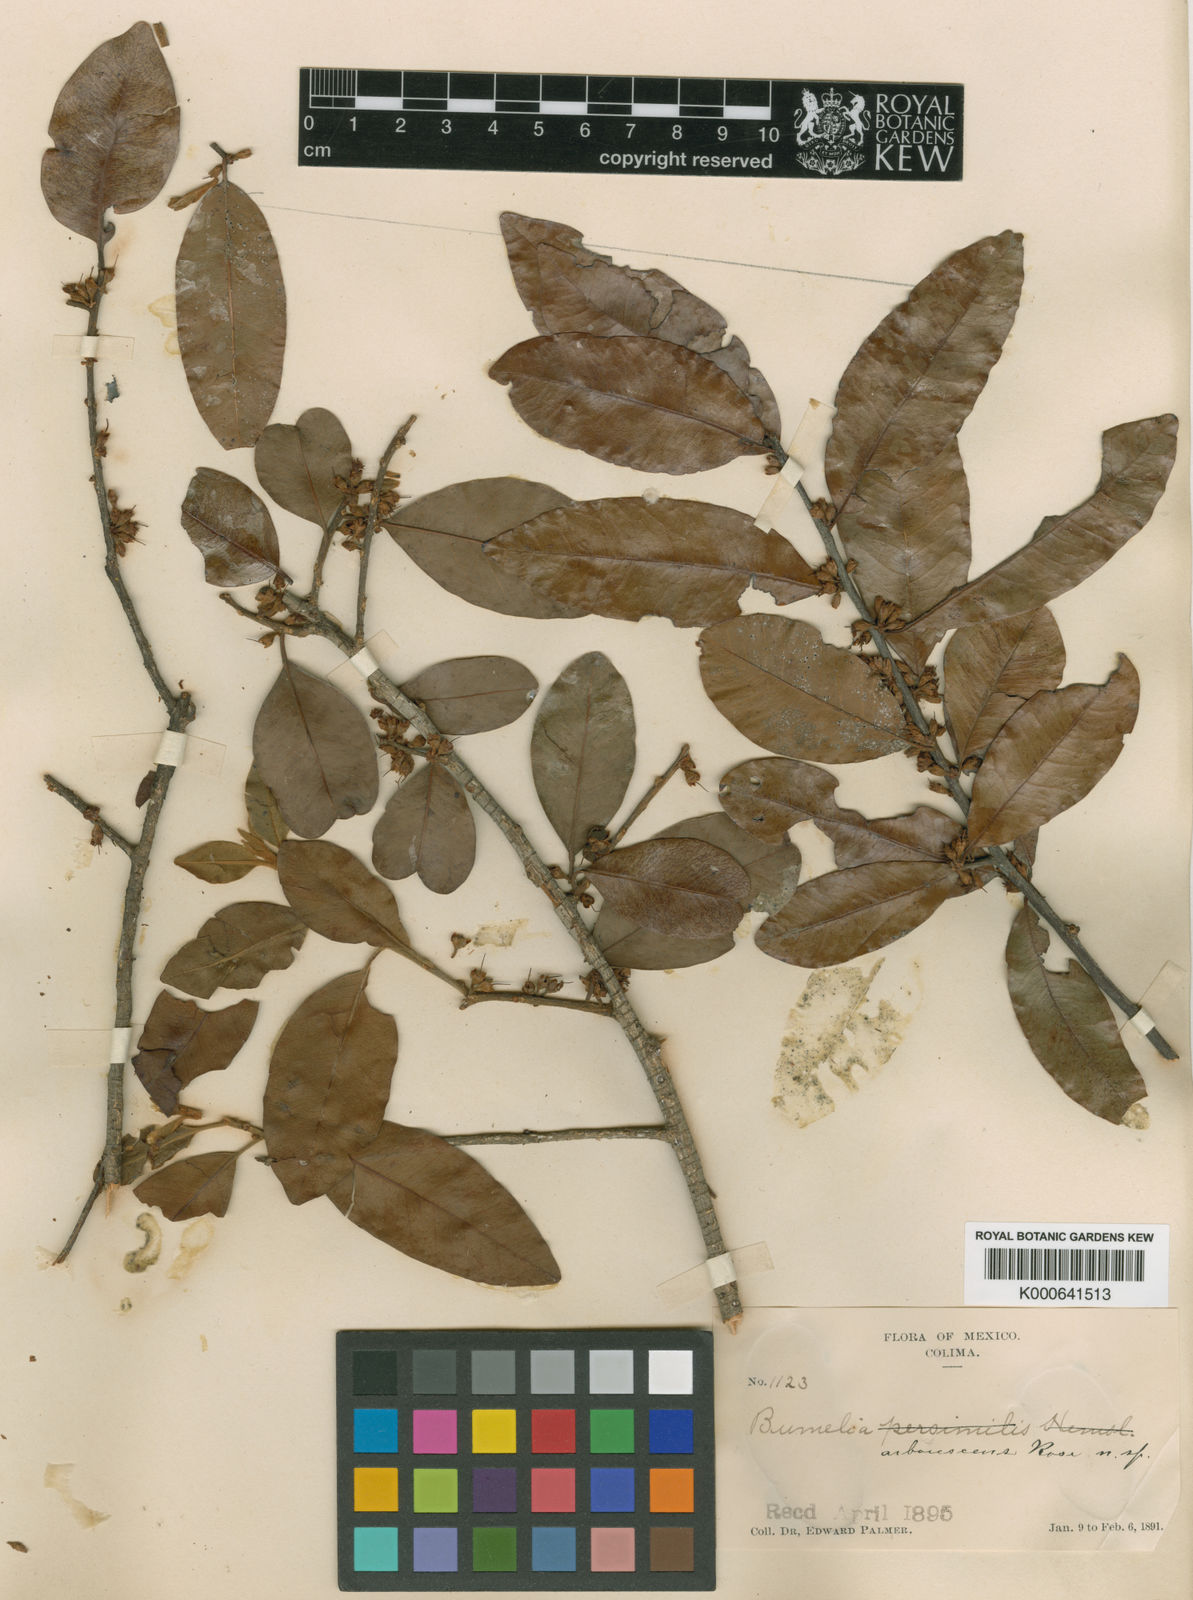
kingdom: Plantae
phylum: Tracheophyta
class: Magnoliopsida
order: Ericales
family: Sapotaceae
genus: Sideroxylon
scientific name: Sideroxylon persimile
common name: Bumelia
